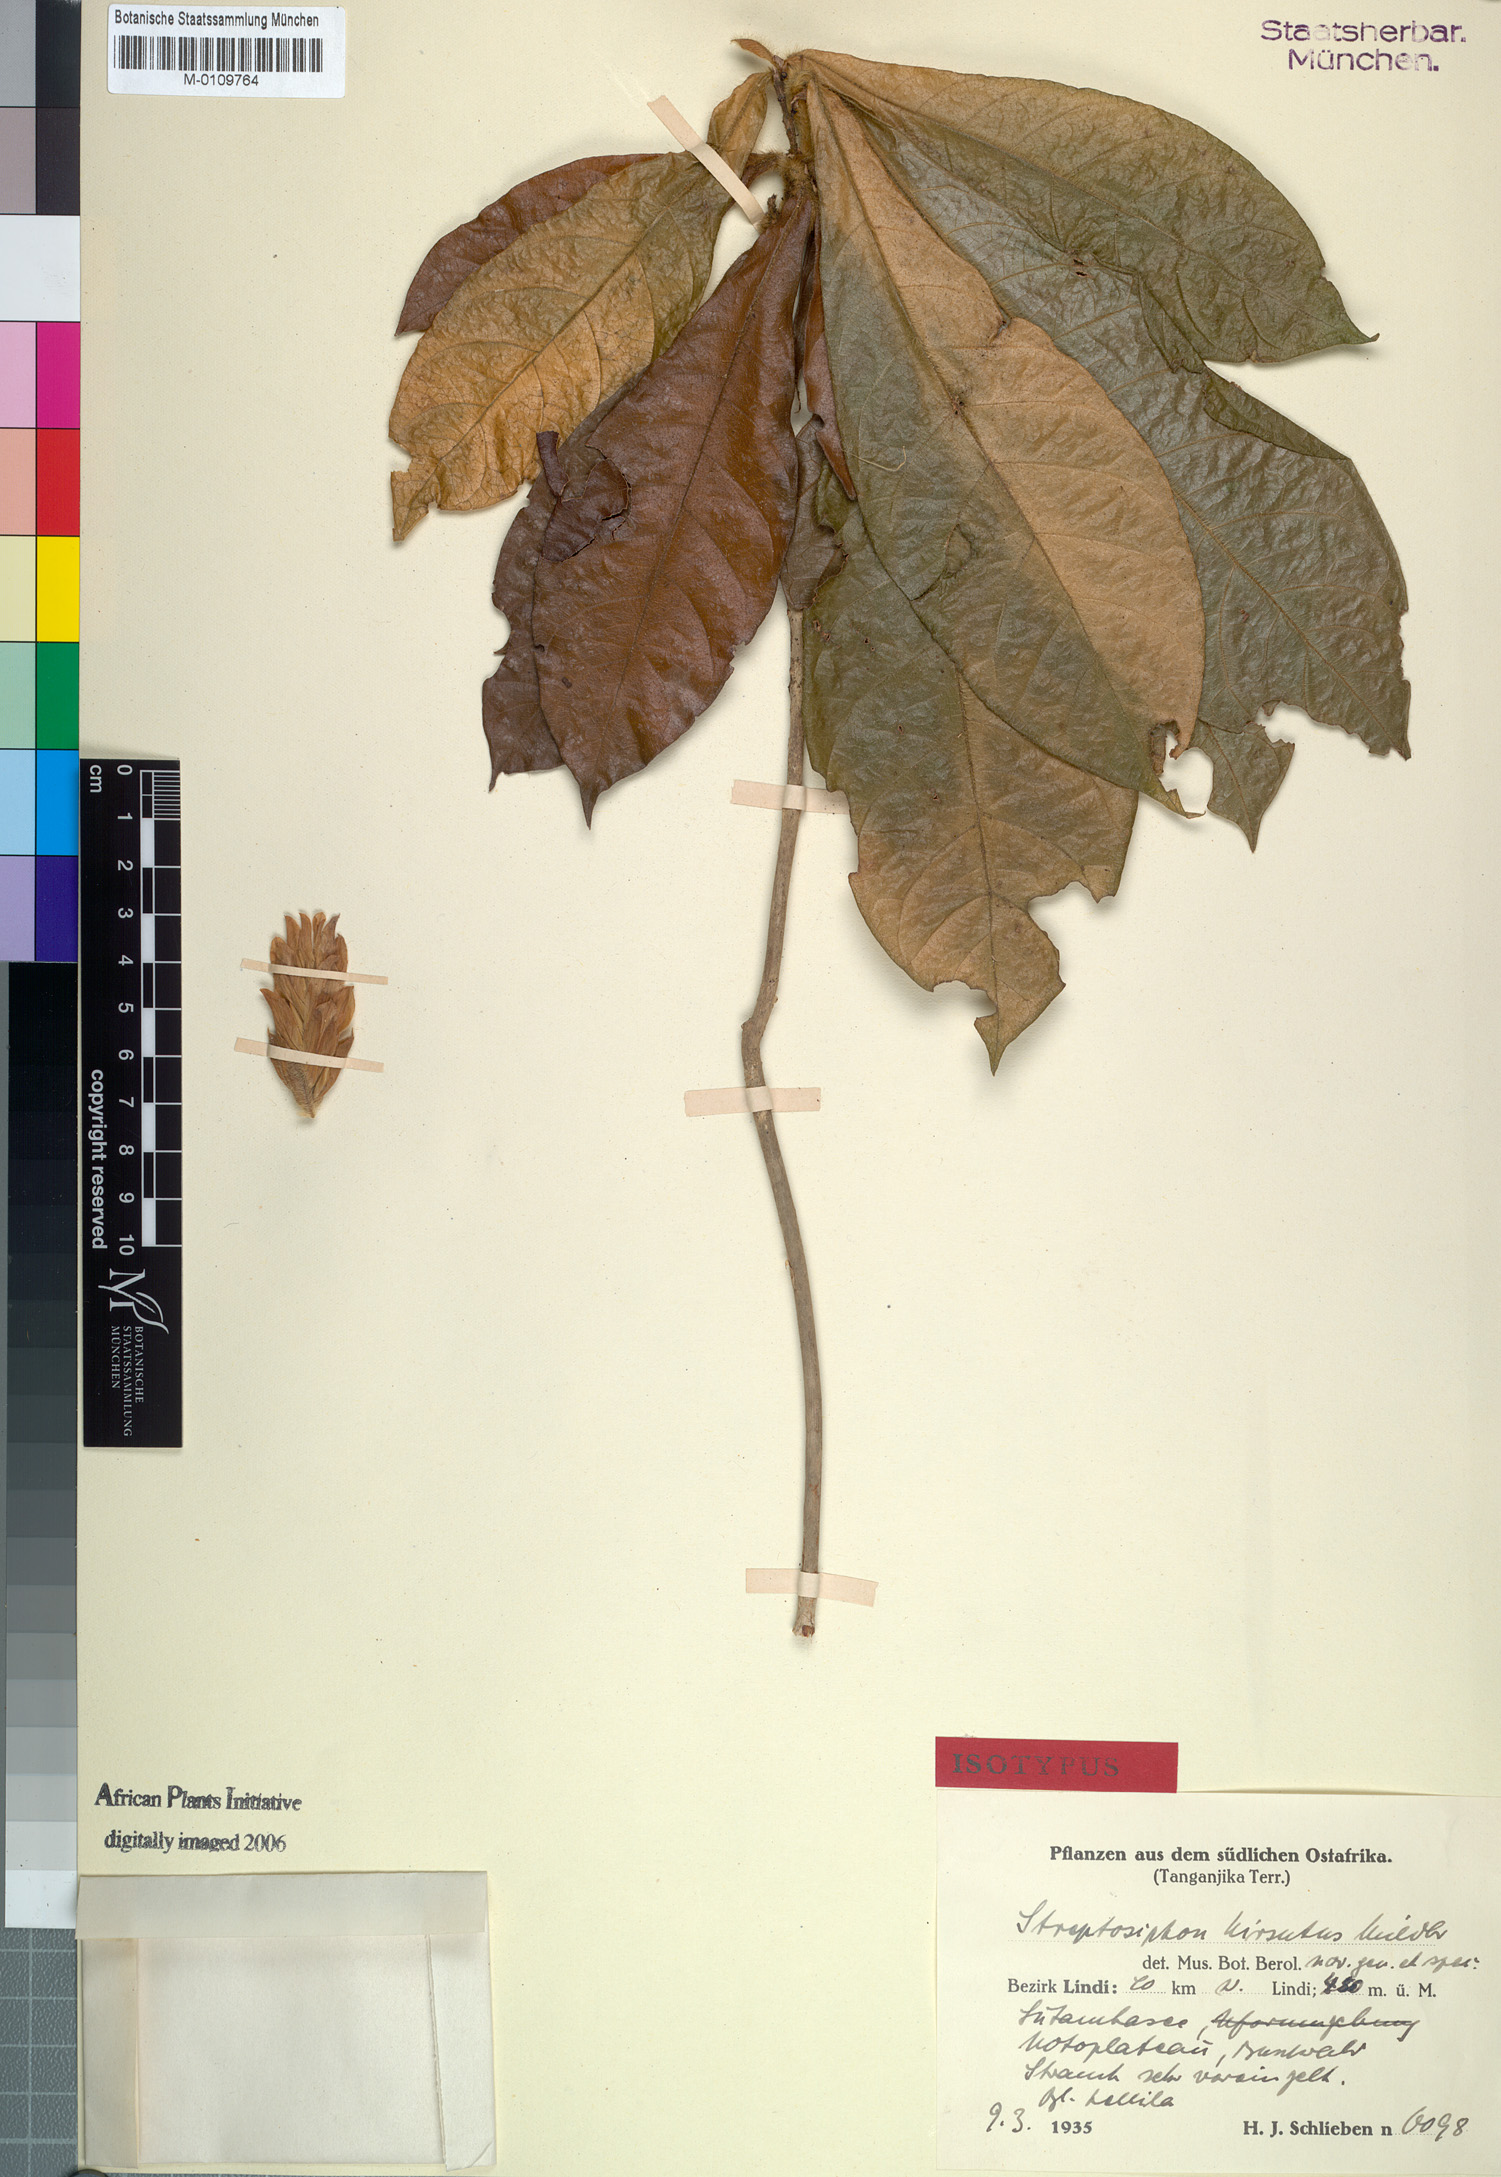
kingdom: Plantae
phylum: Tracheophyta
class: Magnoliopsida
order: Lamiales
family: Acanthaceae
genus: Streptosiphon
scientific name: Streptosiphon hirsutus
